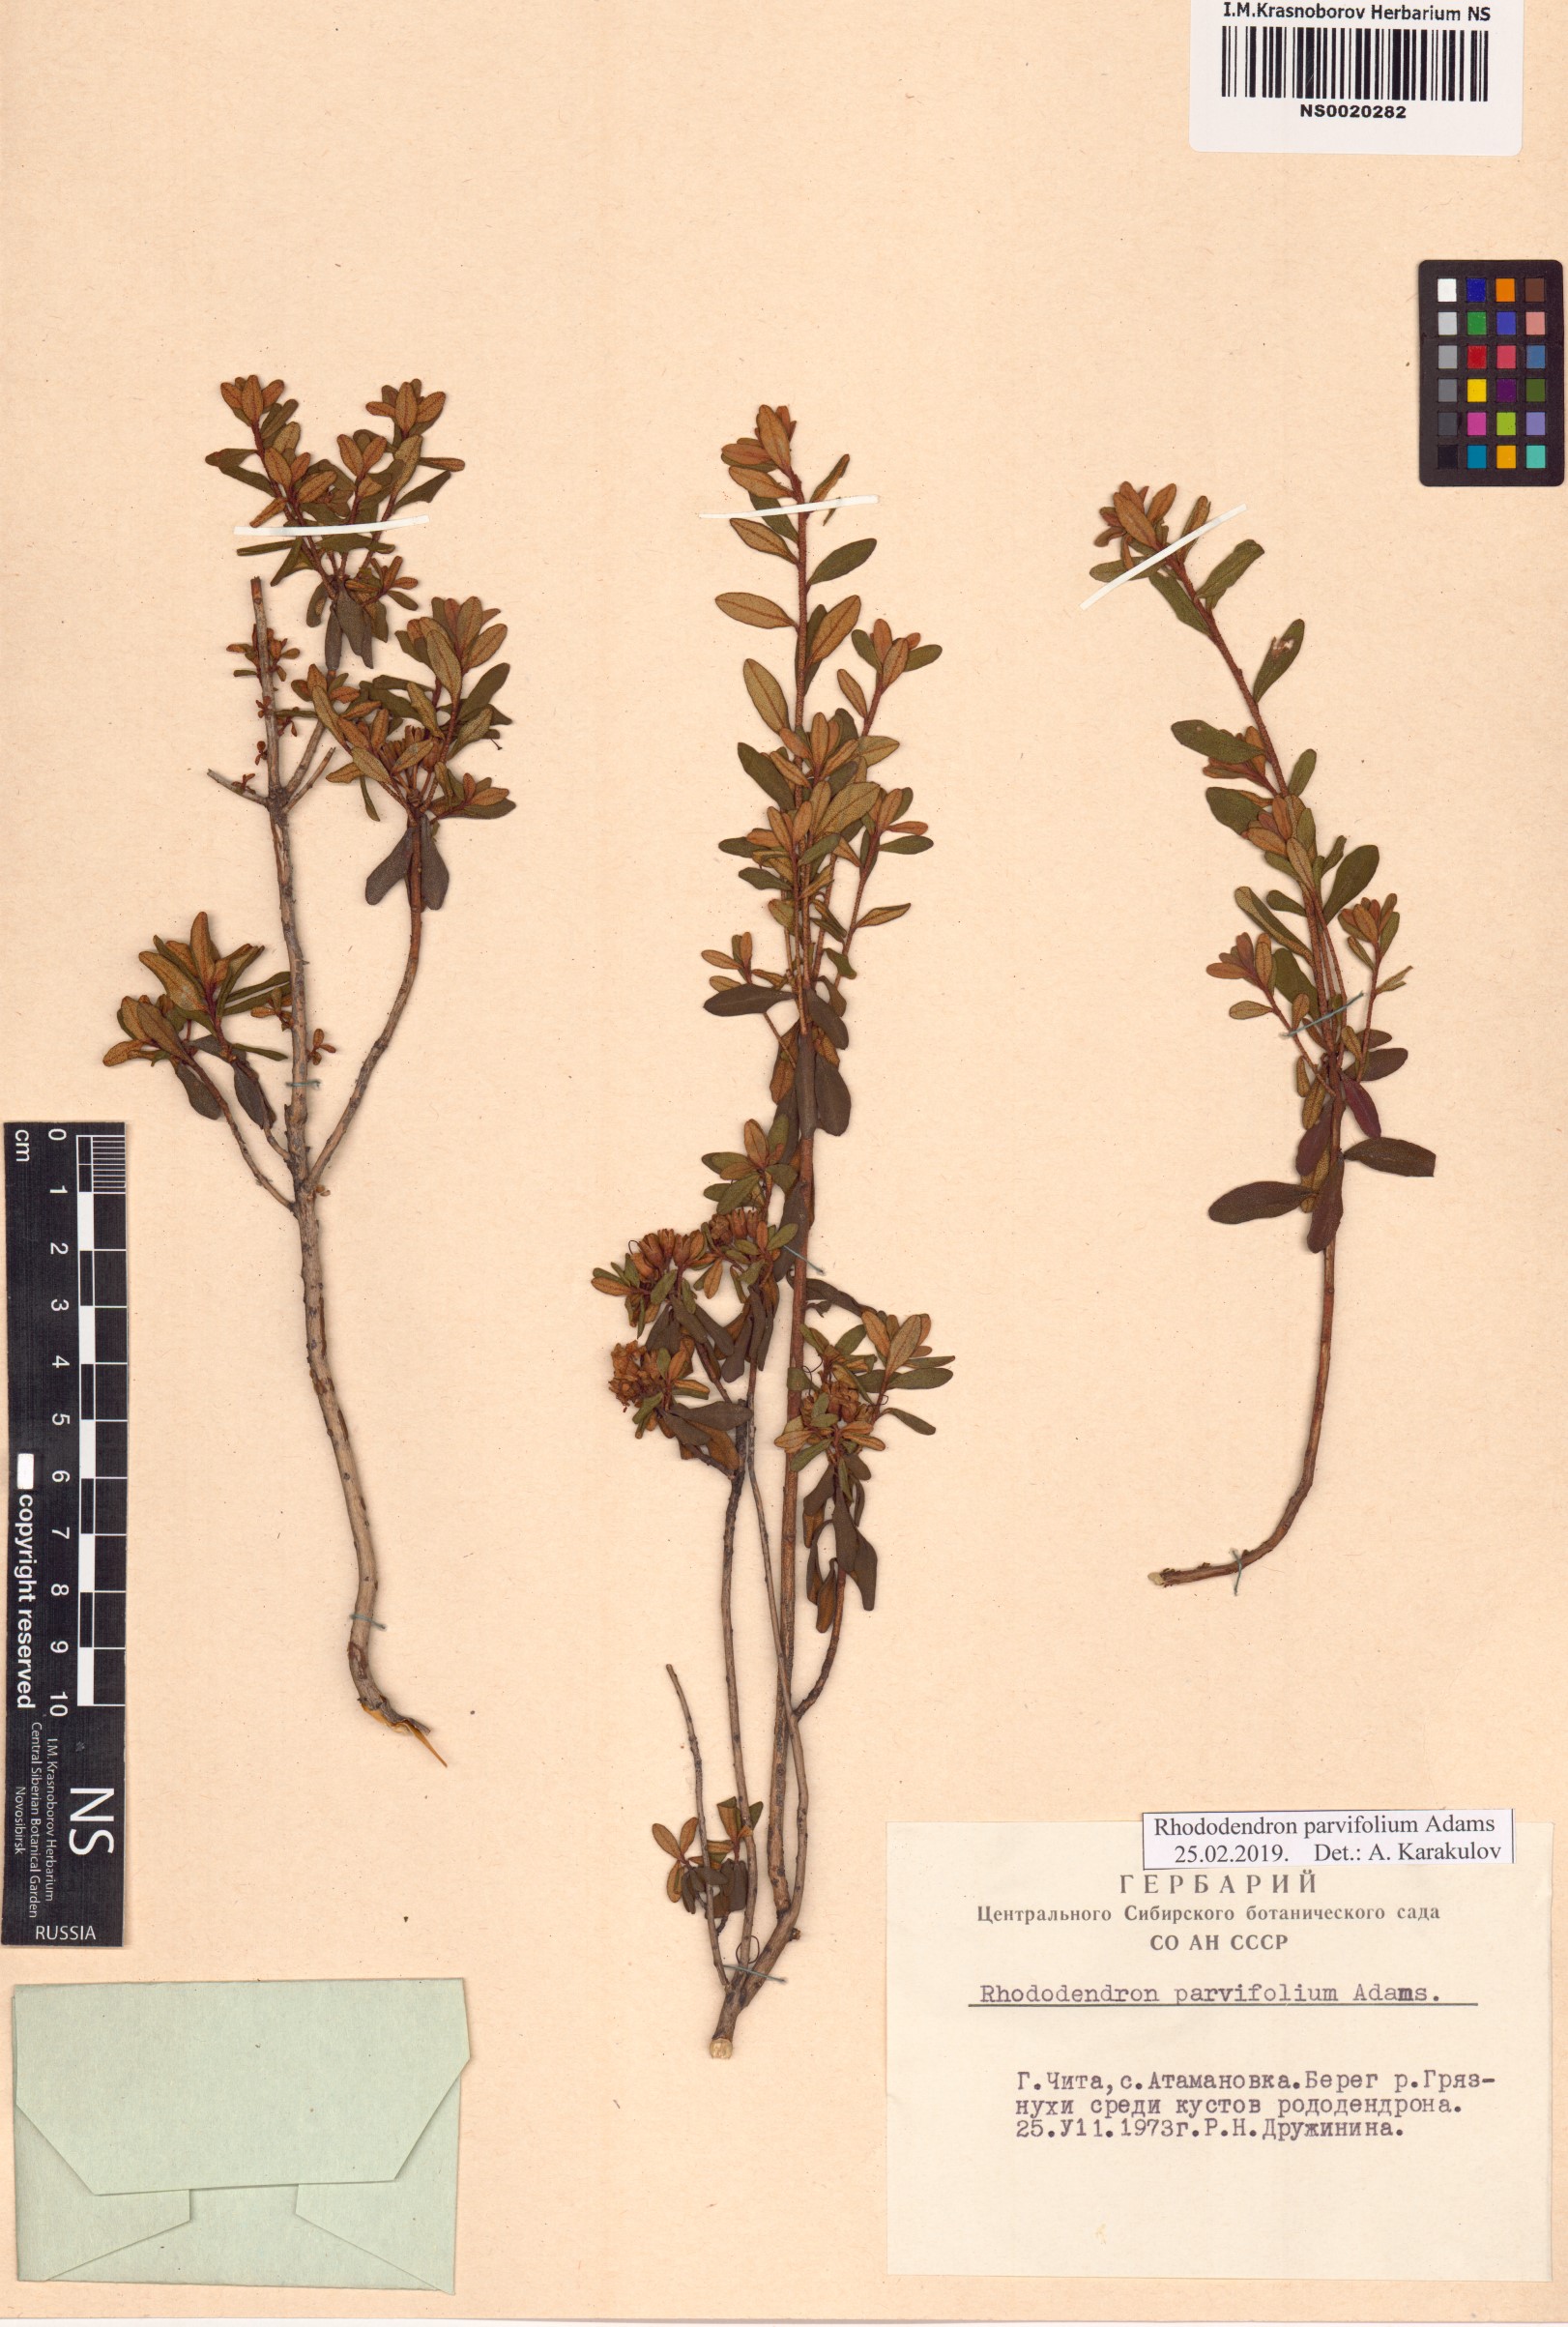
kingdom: Plantae
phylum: Tracheophyta
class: Magnoliopsida
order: Ericales
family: Ericaceae
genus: Rhododendron
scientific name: Rhododendron parvifolium
